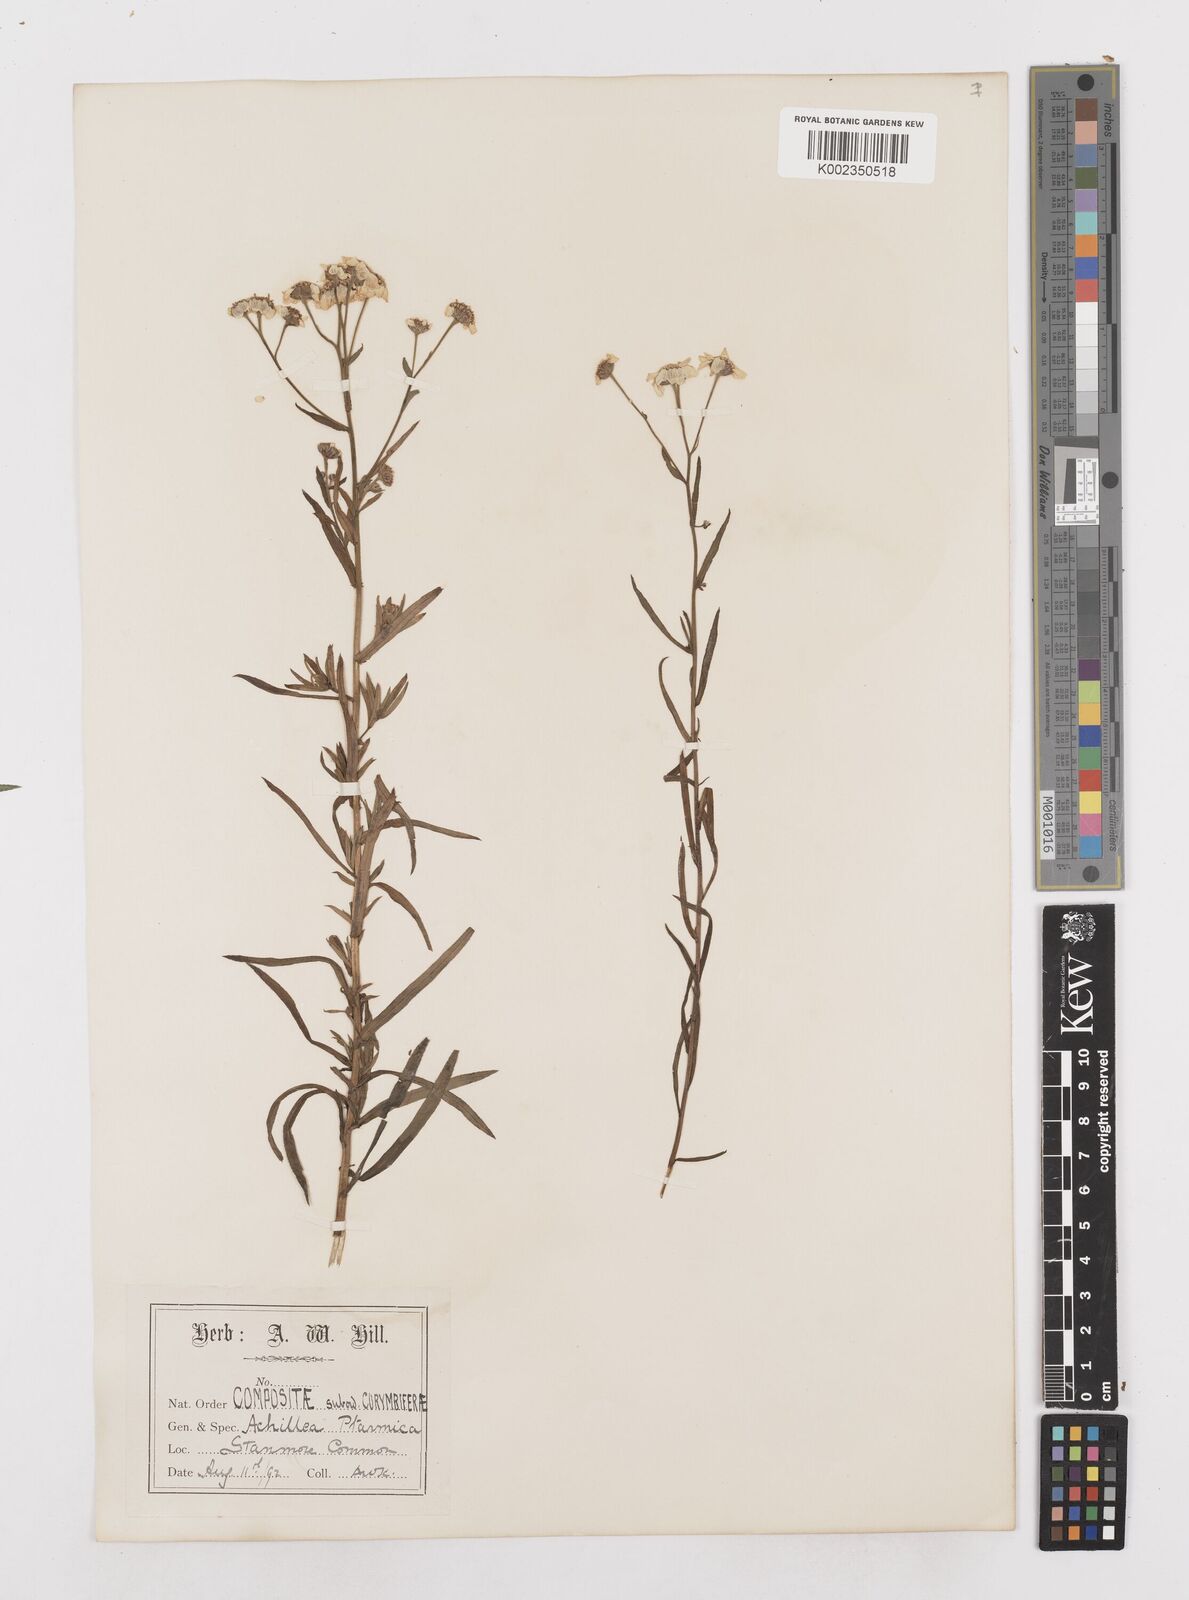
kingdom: Plantae
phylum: Tracheophyta
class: Magnoliopsida
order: Asterales
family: Asteraceae
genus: Achillea
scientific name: Achillea ptarmica
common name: Sneezeweed
